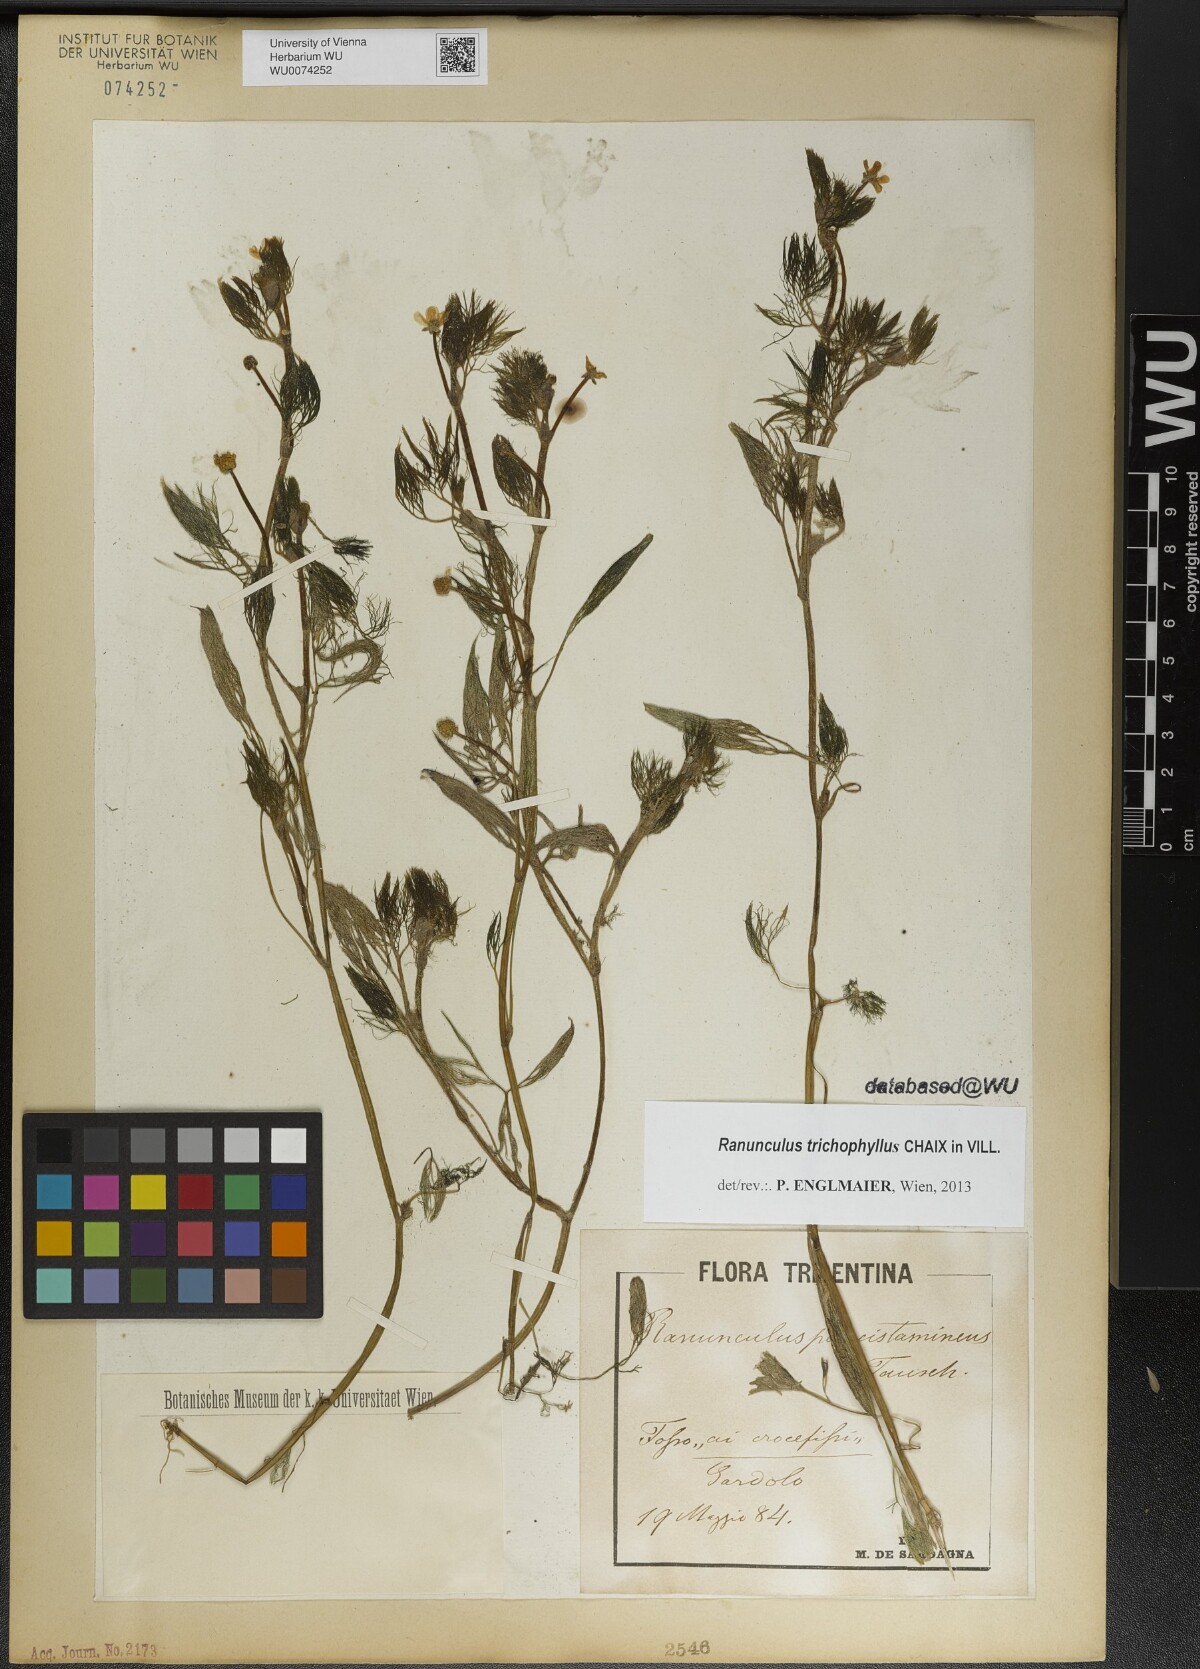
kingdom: Plantae
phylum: Tracheophyta
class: Magnoliopsida
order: Ranunculales
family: Ranunculaceae
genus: Ranunculus
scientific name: Ranunculus trichophyllus
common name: Thread-leaved water-crowfoot
